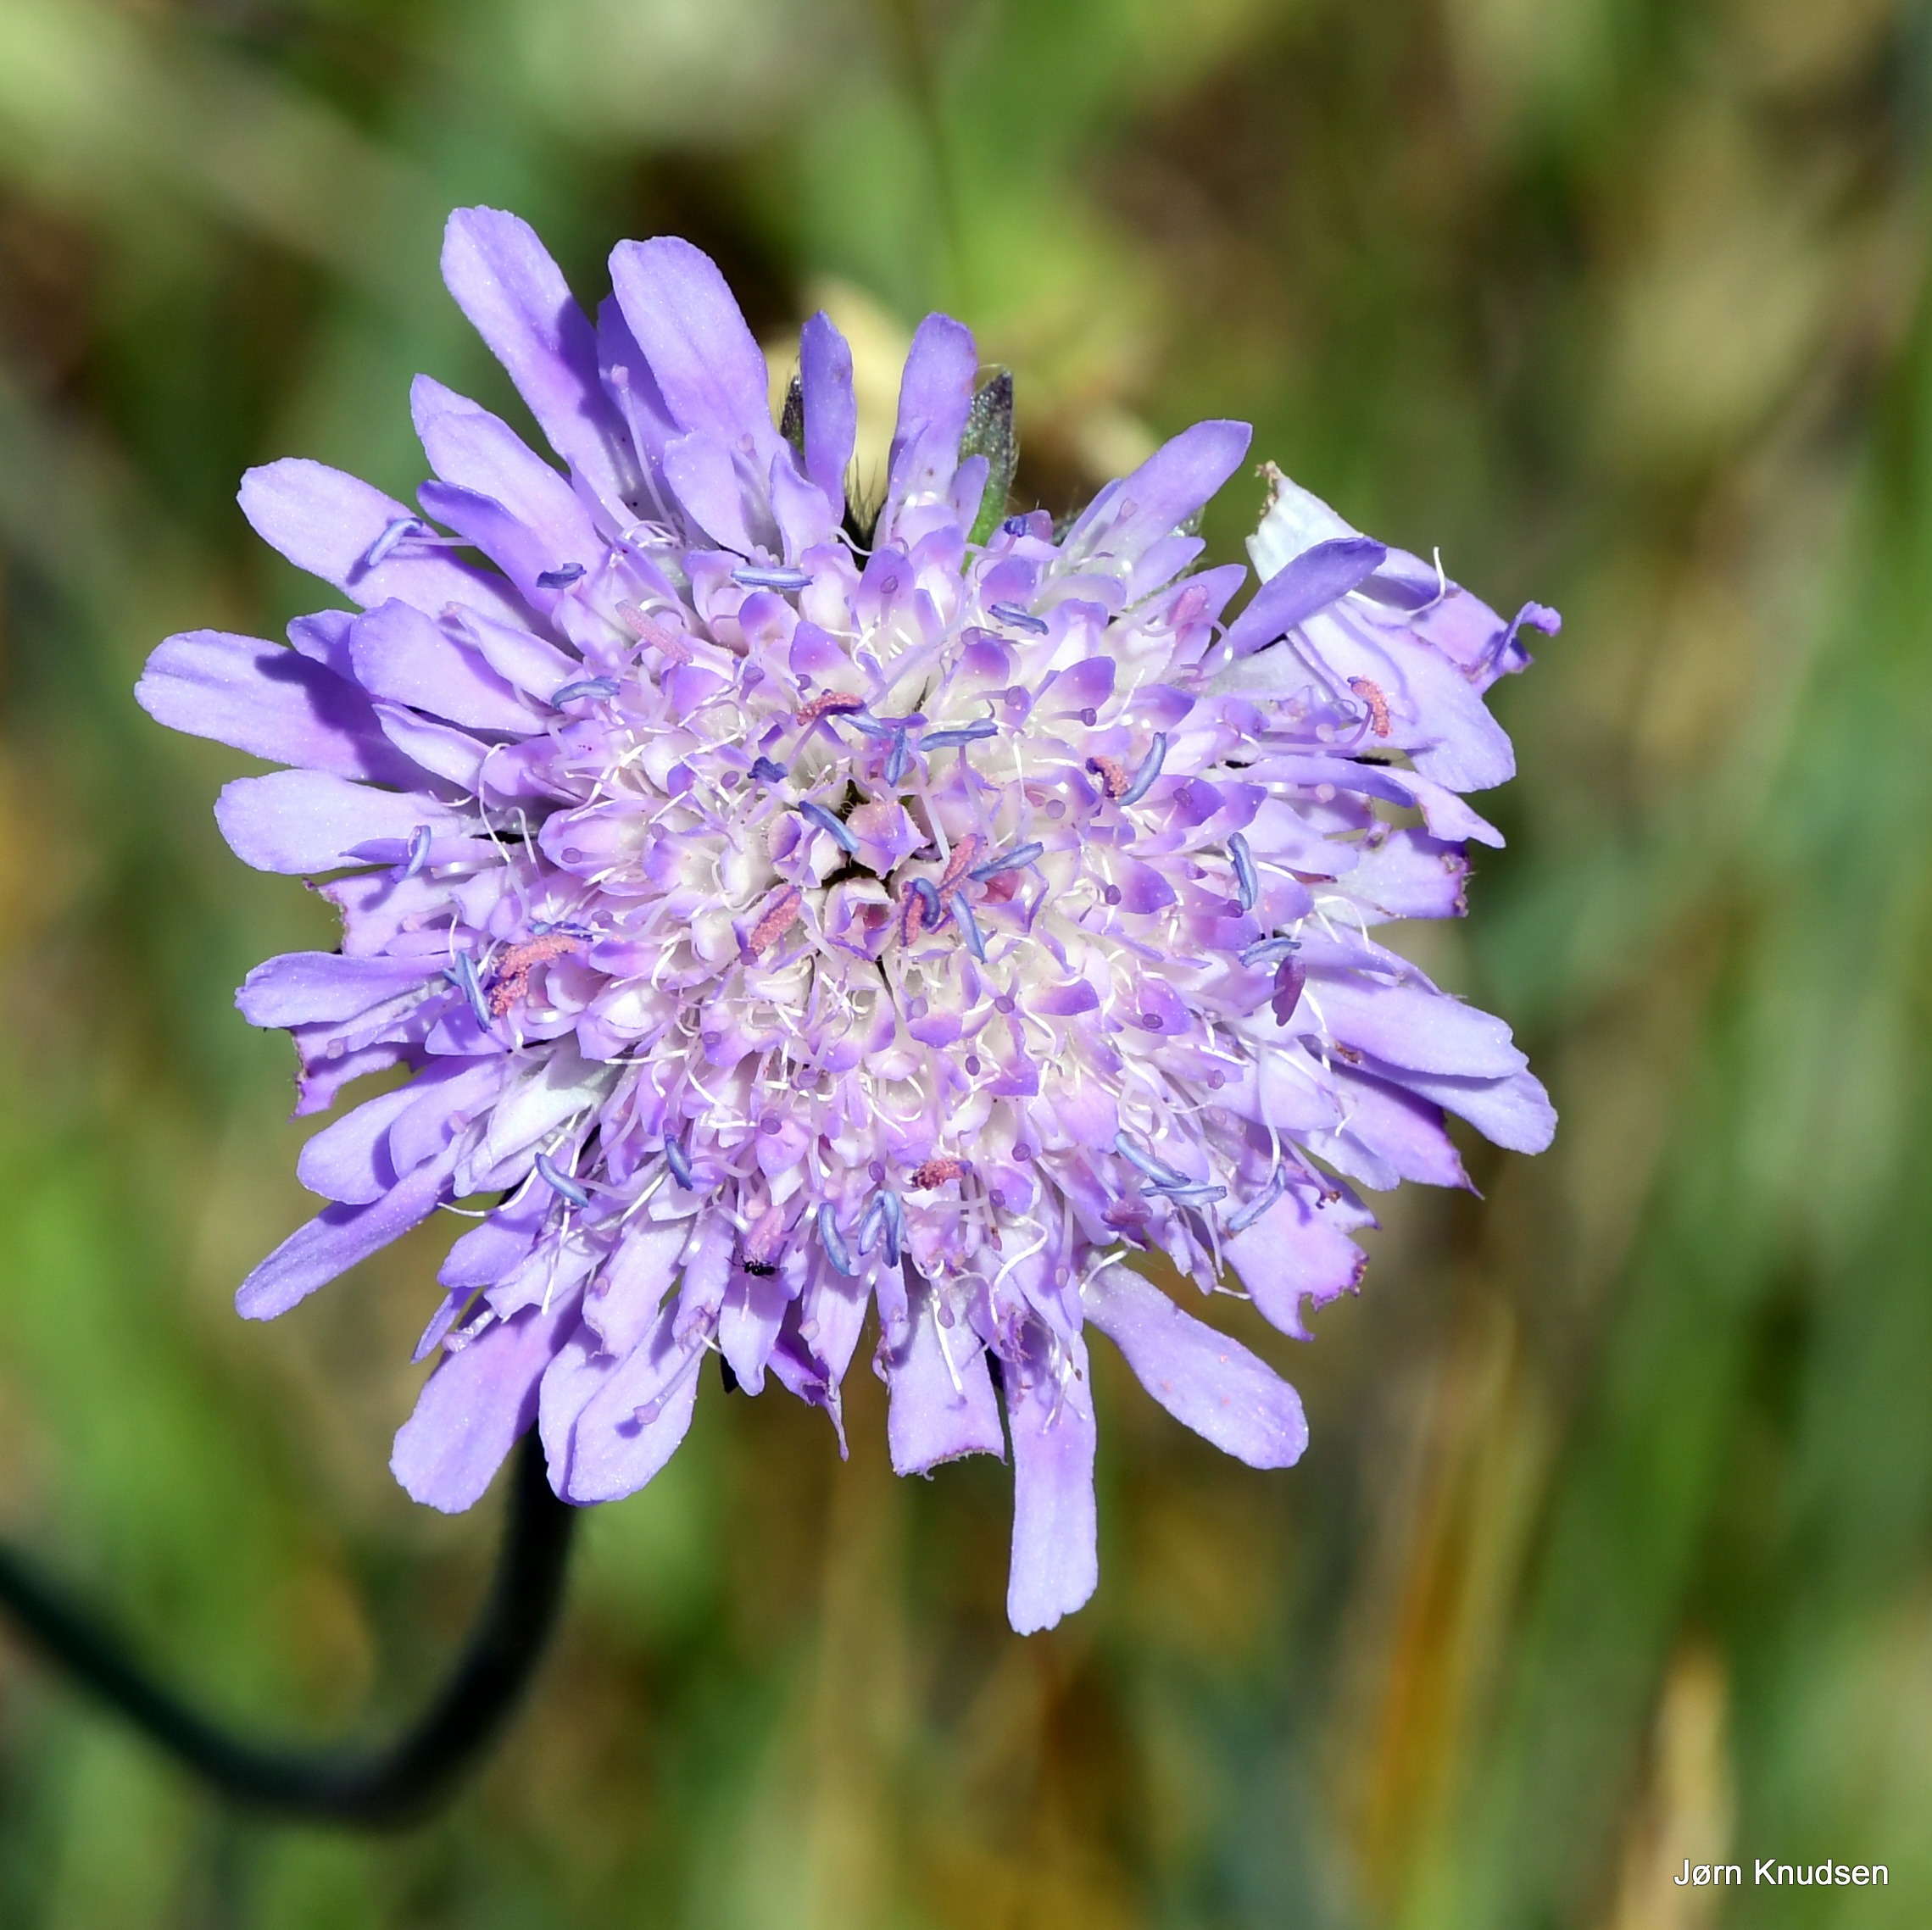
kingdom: Plantae
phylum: Tracheophyta
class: Magnoliopsida
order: Dipsacales
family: Caprifoliaceae
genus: Knautia
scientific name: Knautia arvensis
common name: Blåhat
